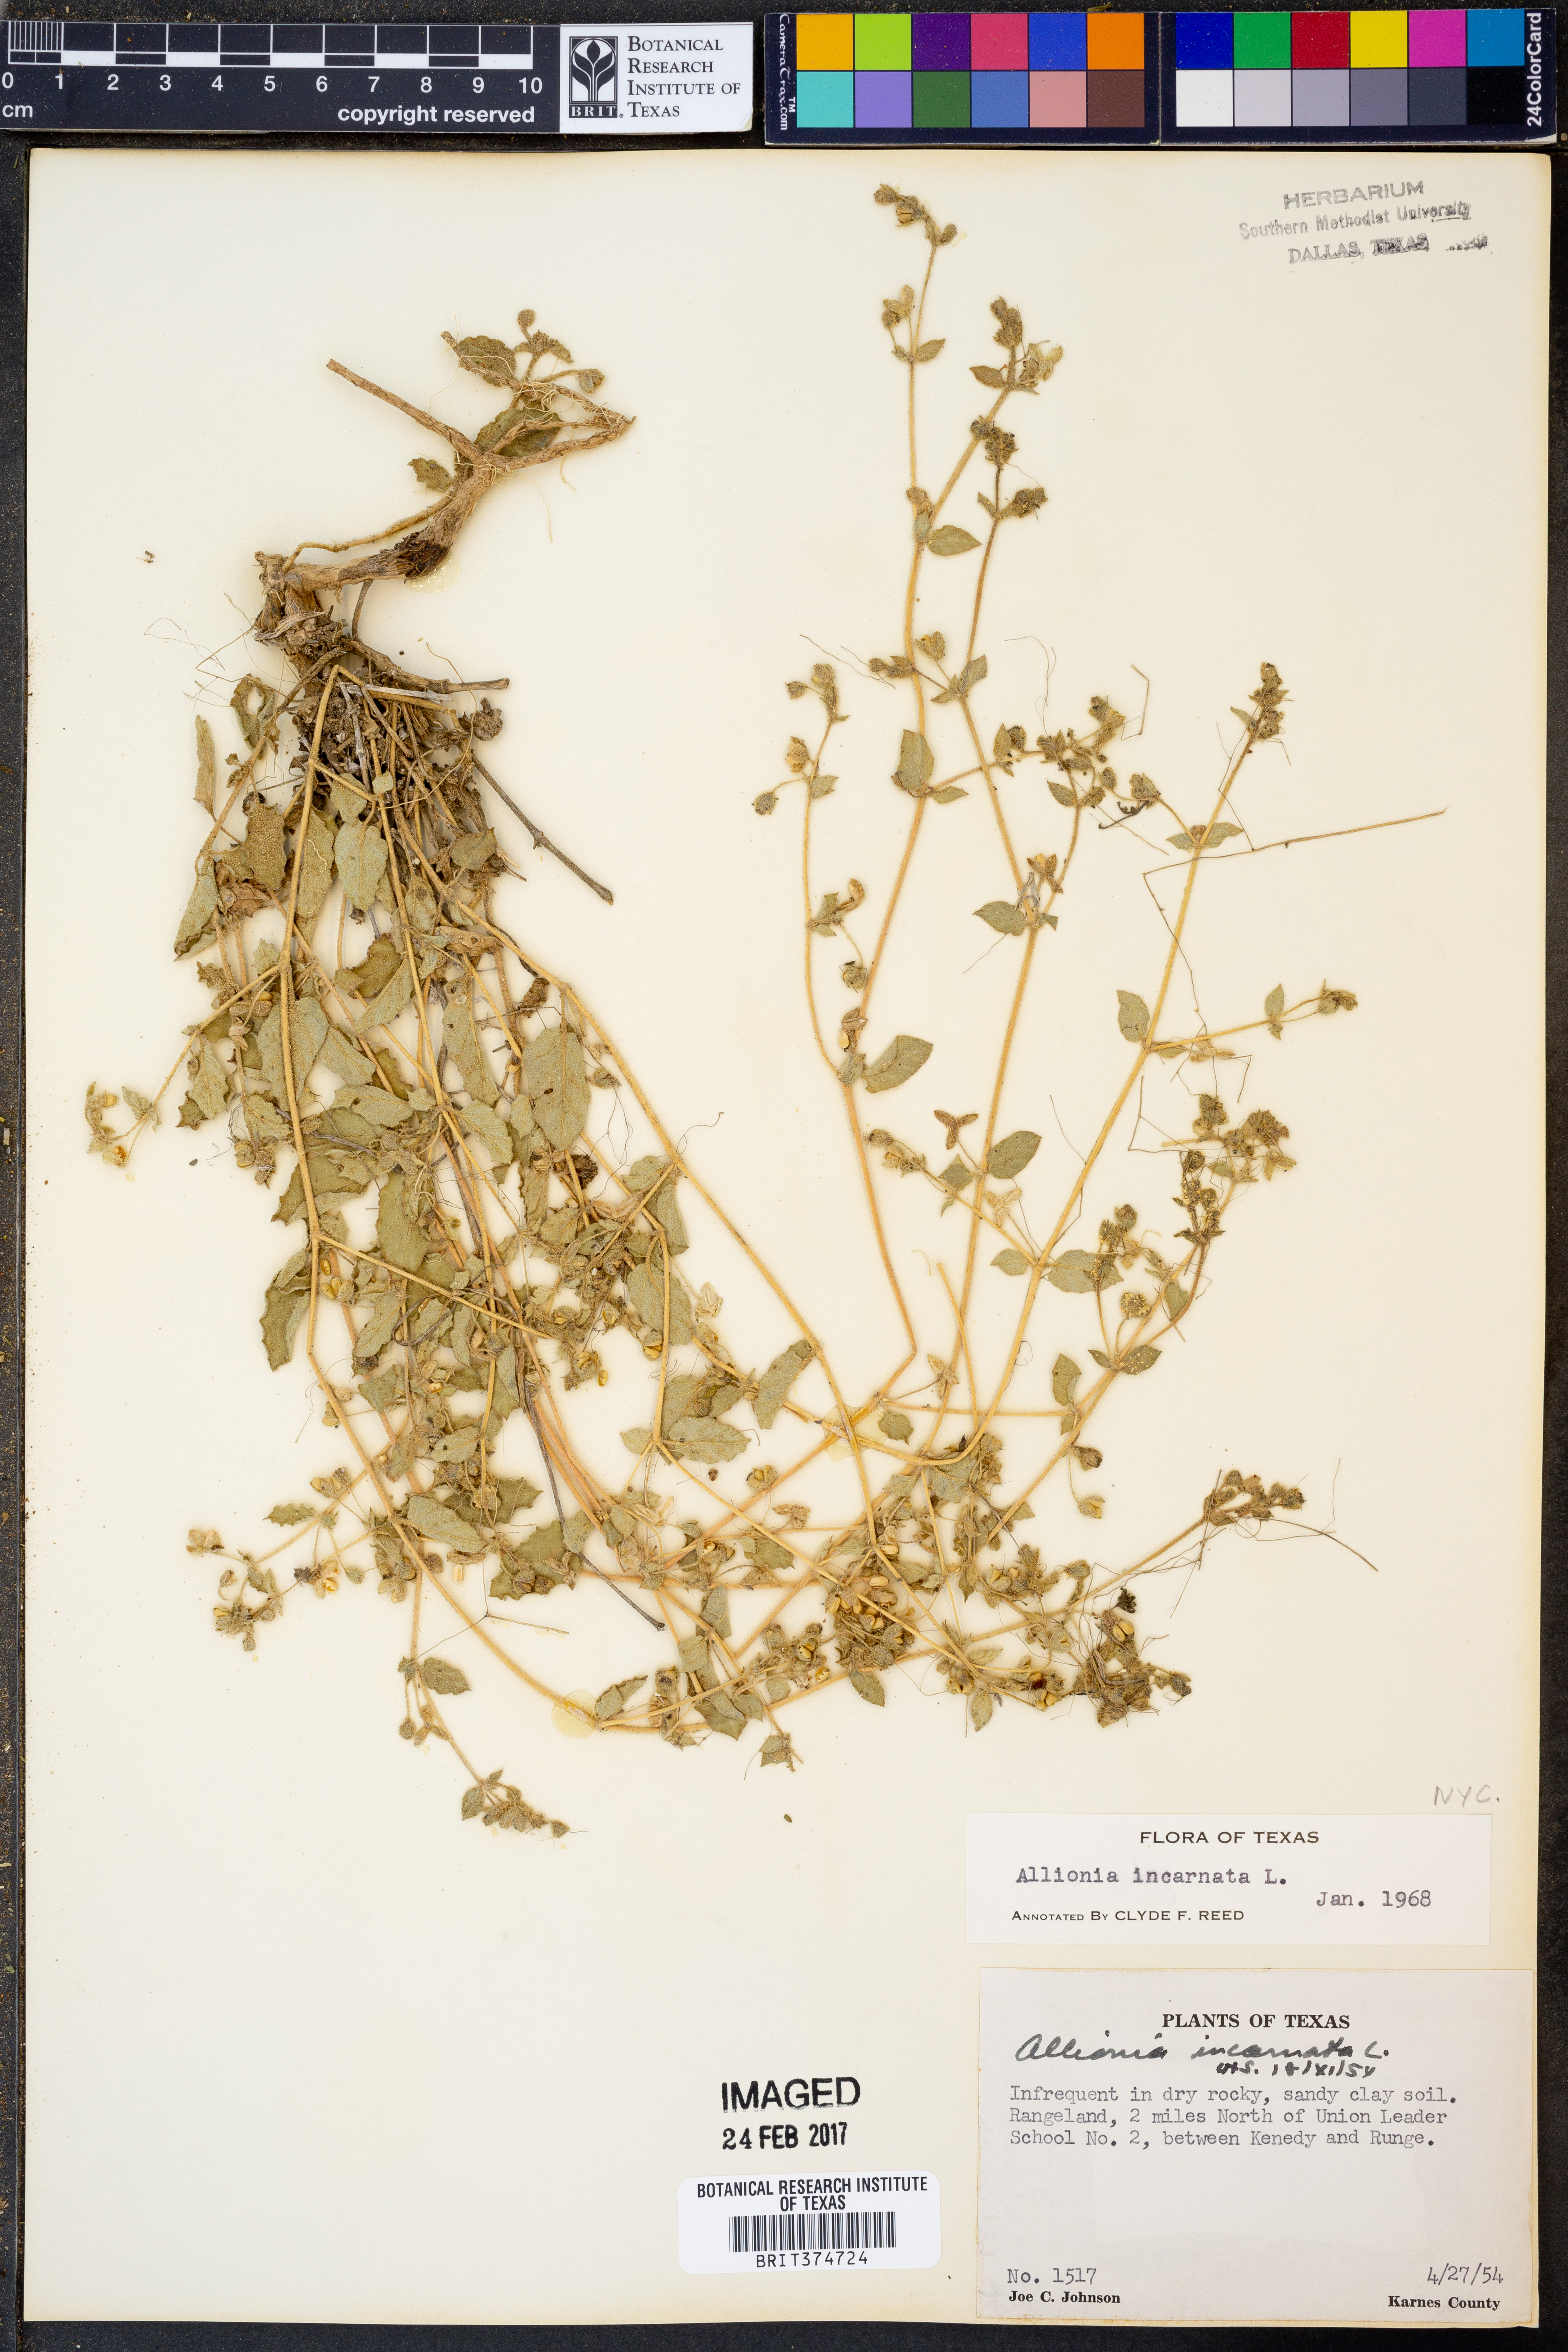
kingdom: Plantae
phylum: Tracheophyta
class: Magnoliopsida
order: Caryophyllales
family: Nyctaginaceae
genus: Allionia
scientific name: Allionia incarnata
